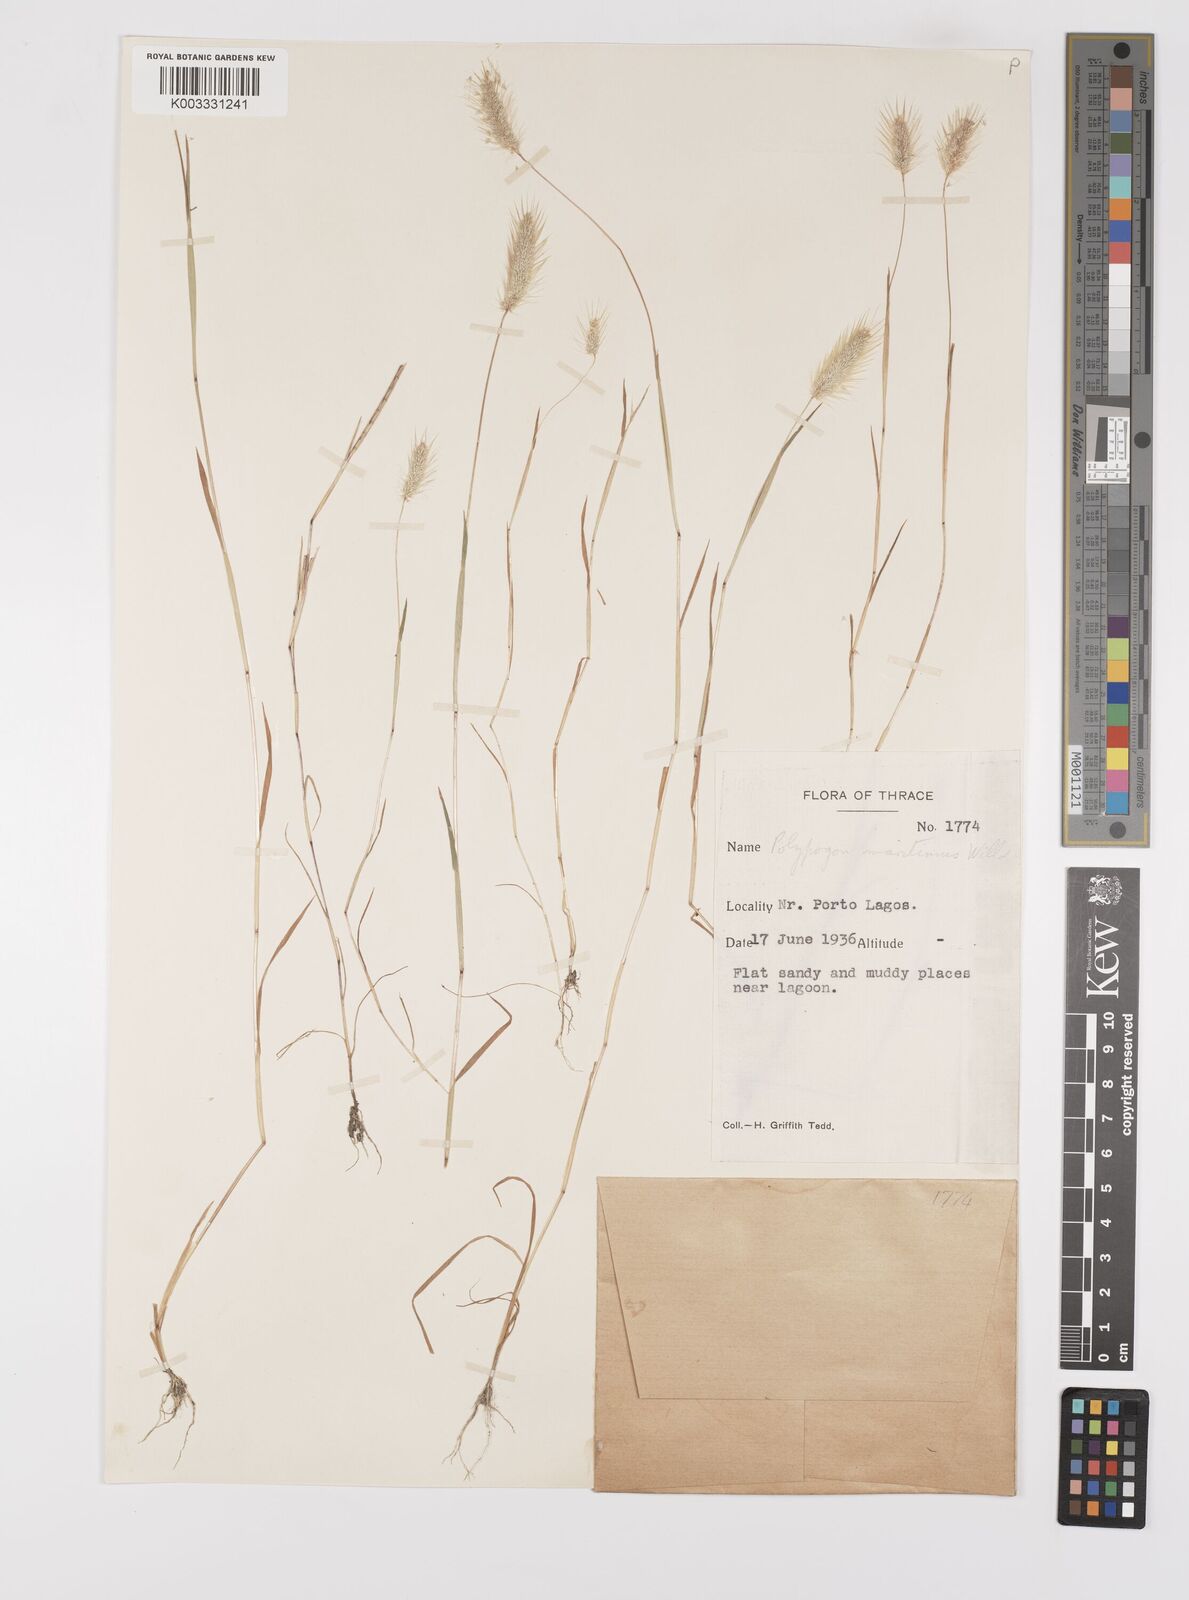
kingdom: Plantae
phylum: Tracheophyta
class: Liliopsida
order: Poales
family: Poaceae
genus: Polypogon
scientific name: Polypogon maritimus
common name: Mediterranean rabbitsfoot grass
